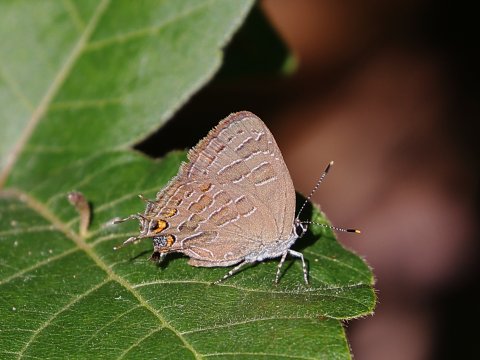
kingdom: Animalia
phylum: Arthropoda
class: Insecta
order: Lepidoptera
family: Lycaenidae
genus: Satyrium
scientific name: Satyrium liparops
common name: Striped Hairstreak
